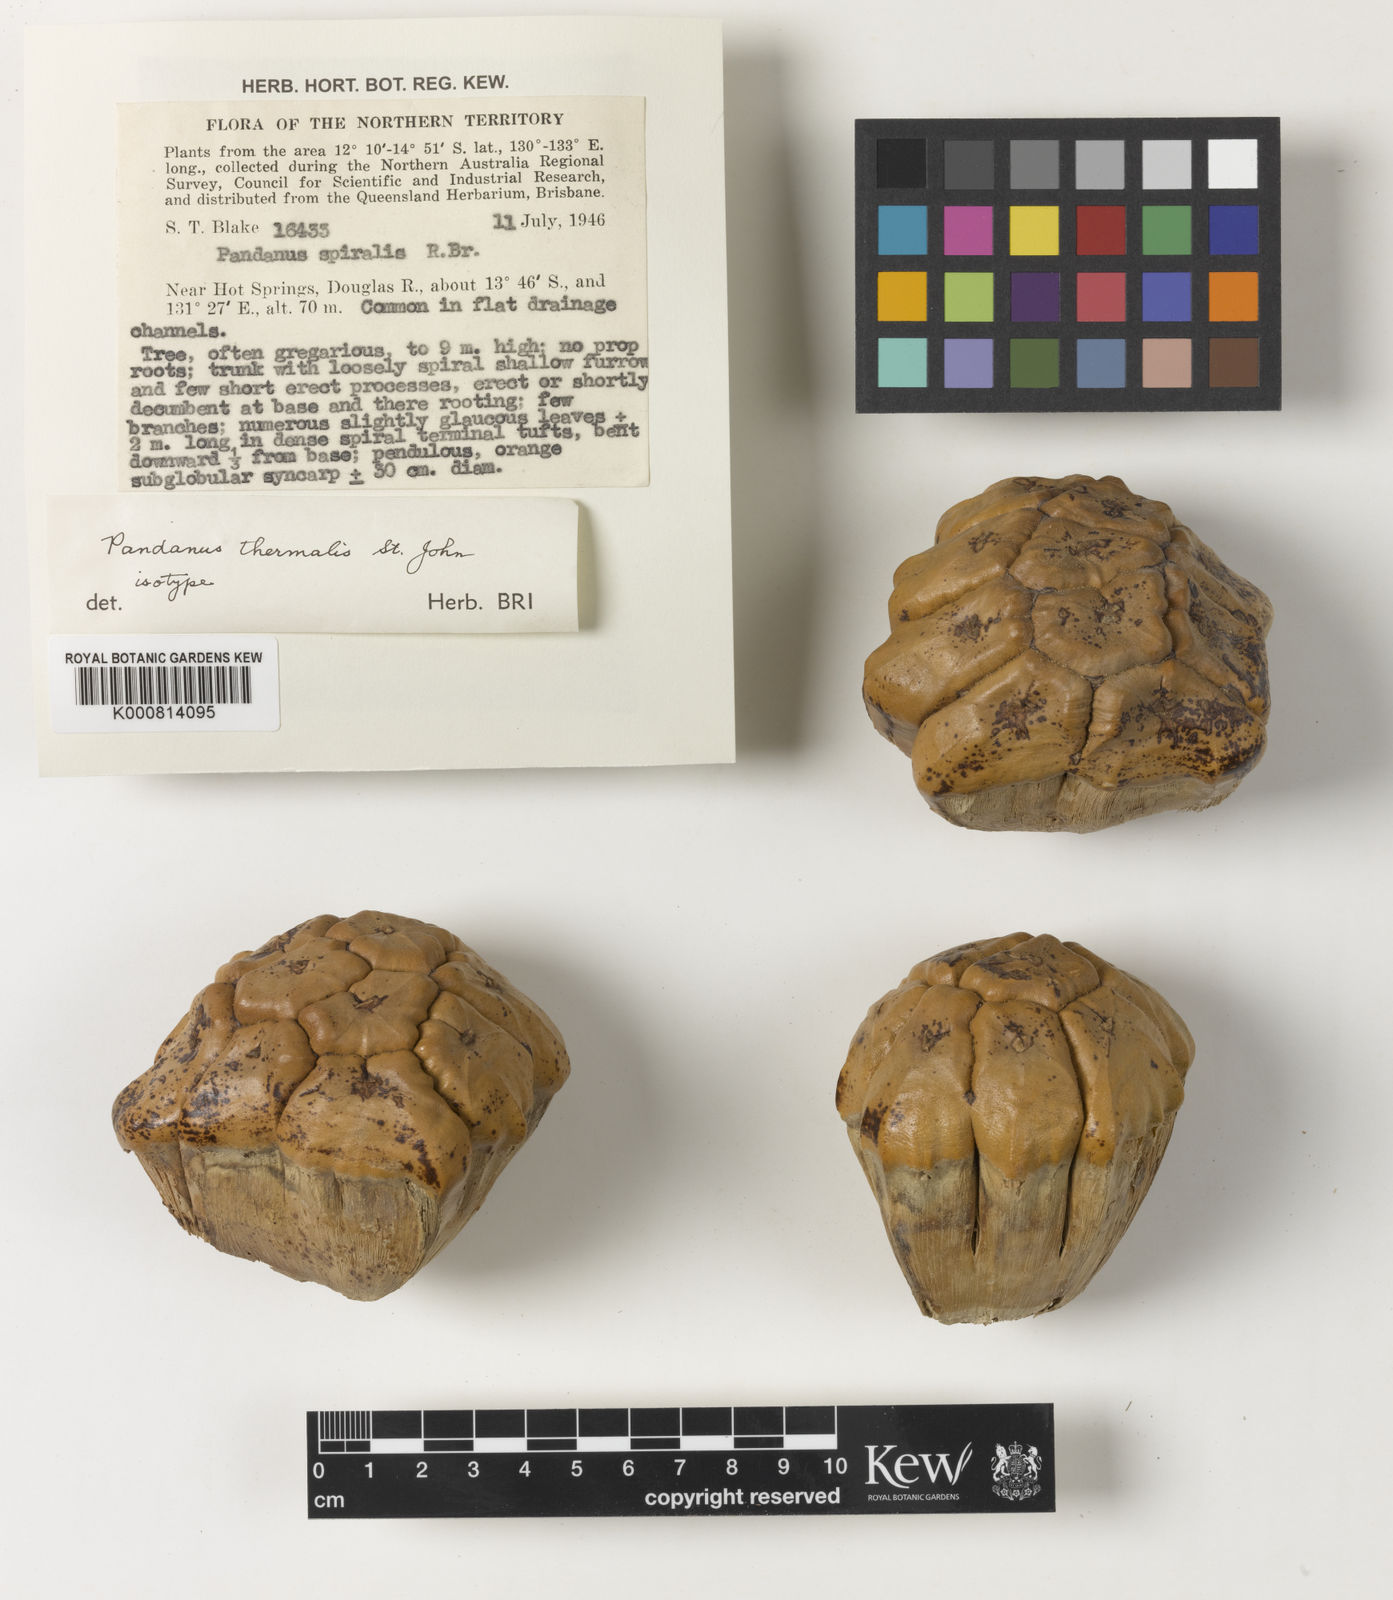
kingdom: Plantae
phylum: Tracheophyta
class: Liliopsida
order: Pandanales
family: Pandanaceae
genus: Pandanus
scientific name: Pandanus spiralis
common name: Screw-pine
